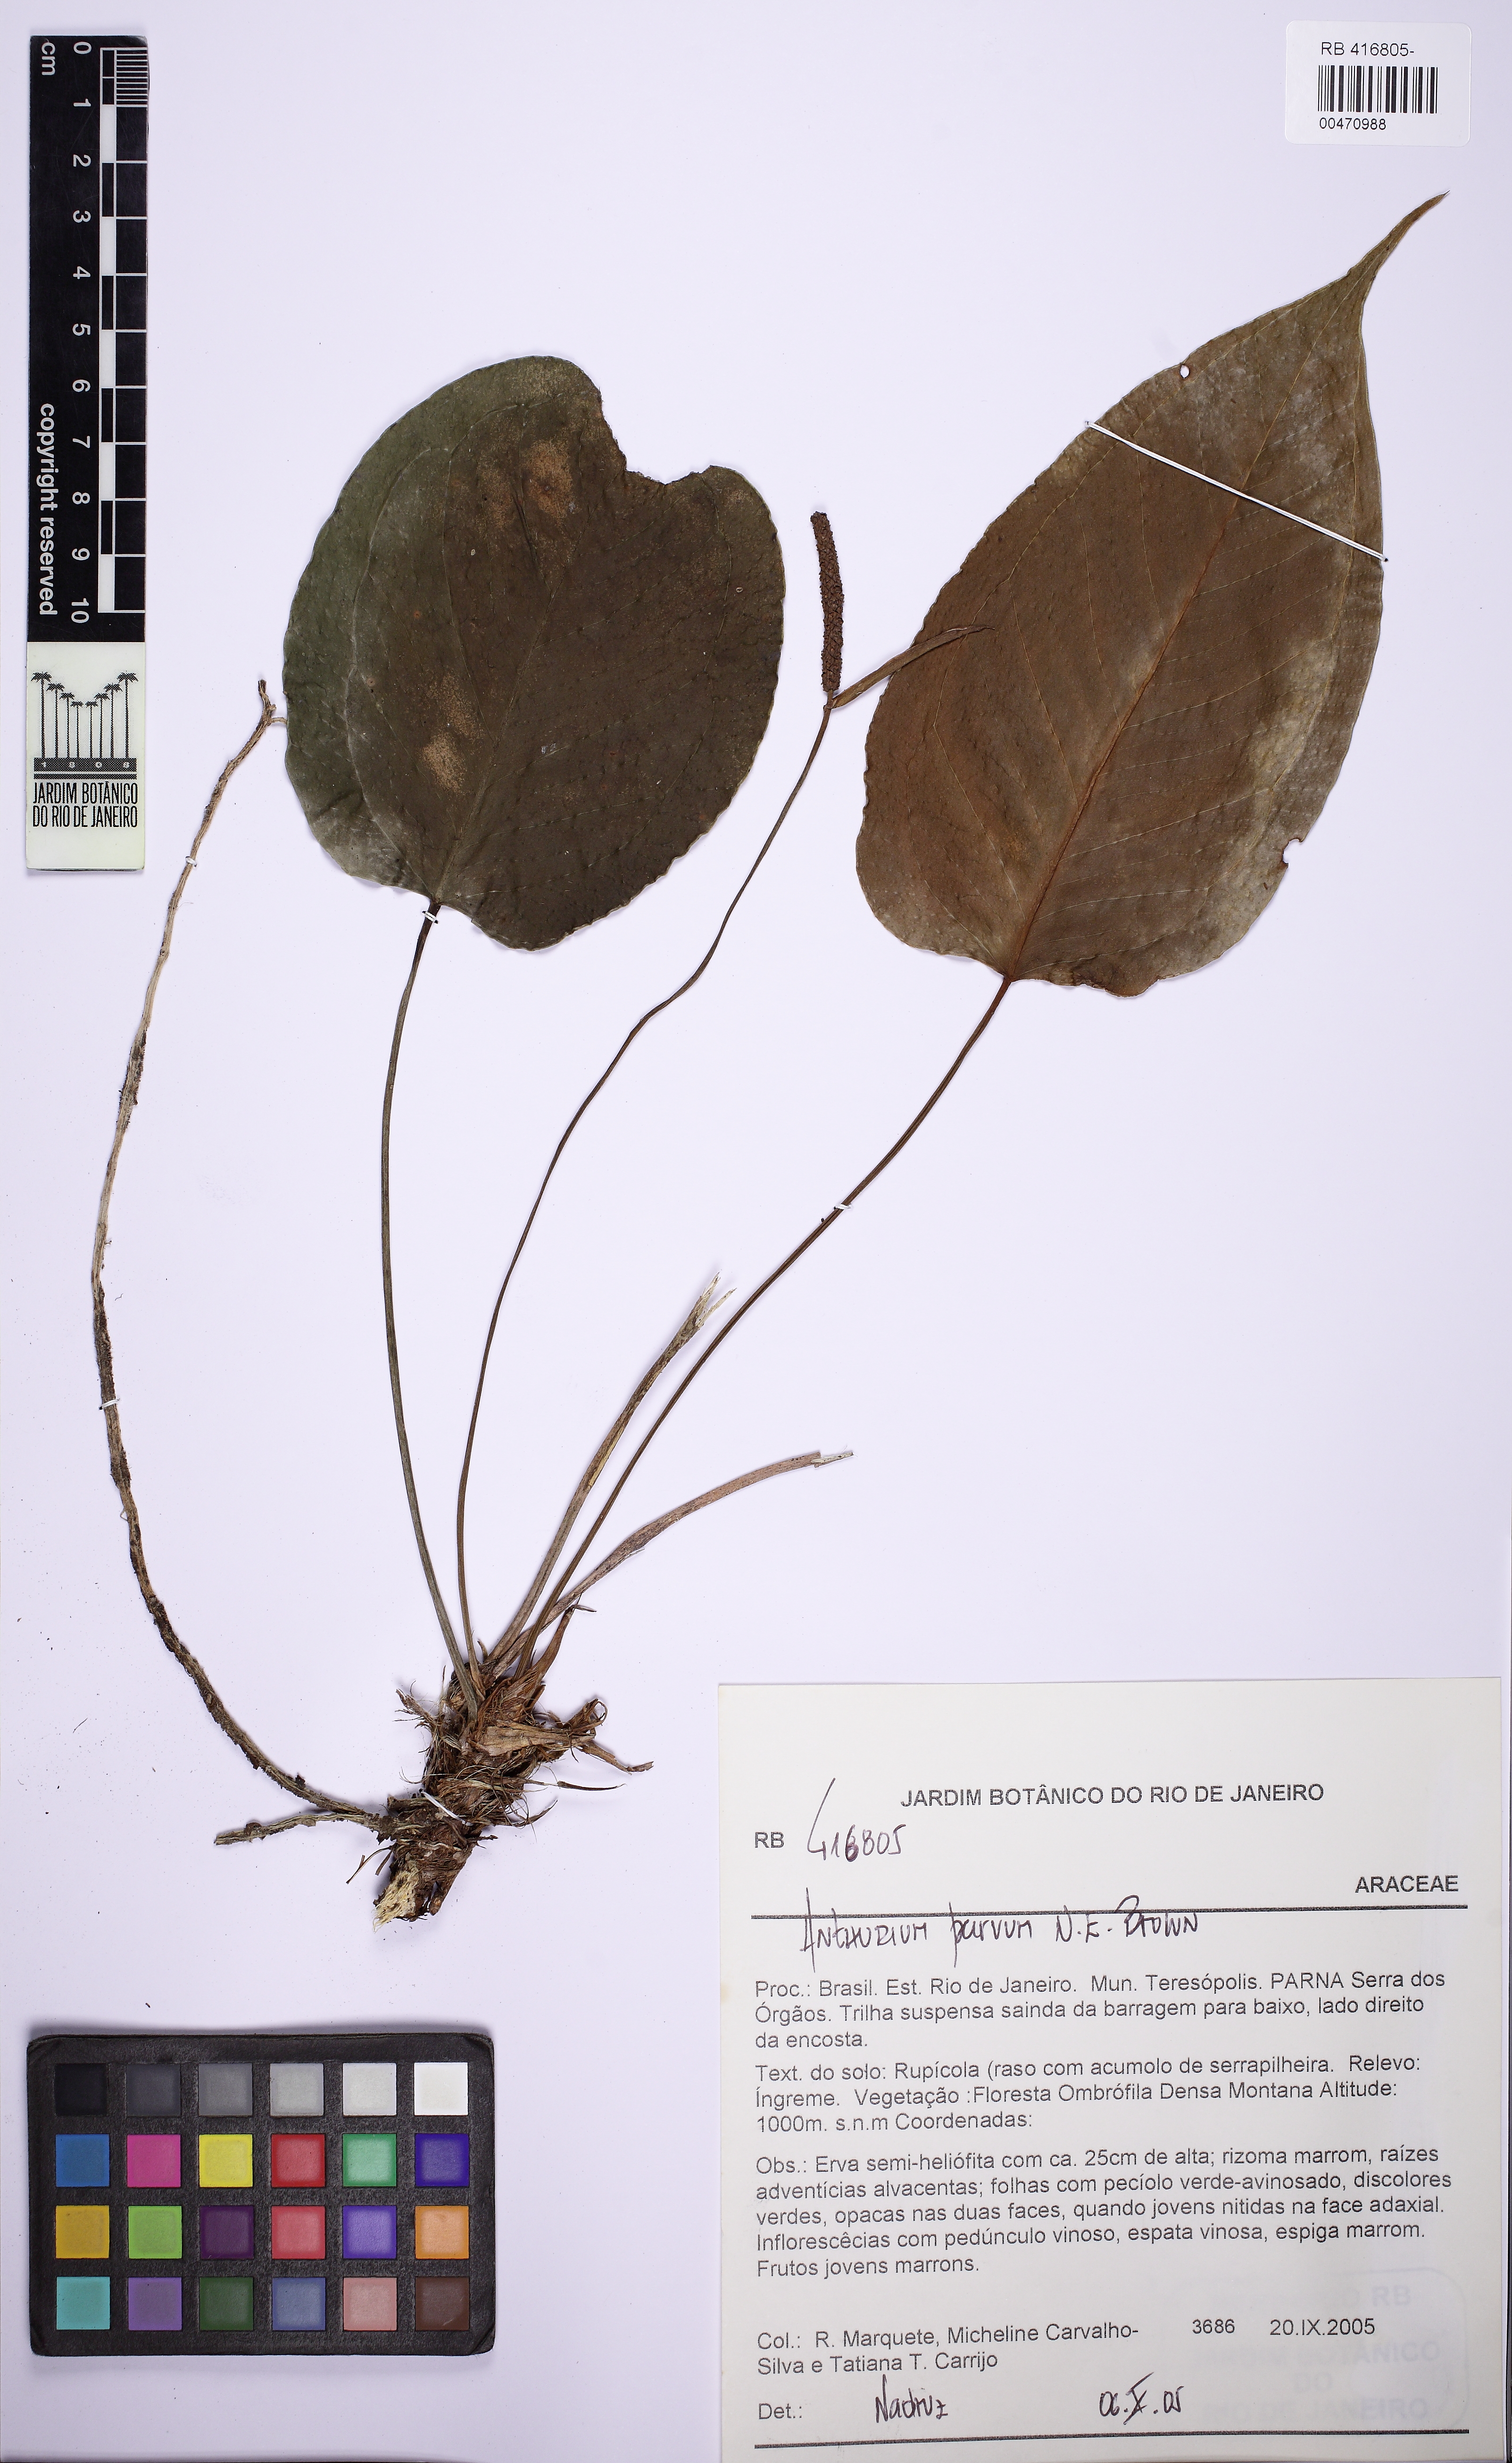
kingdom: Plantae
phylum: Tracheophyta
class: Liliopsida
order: Alismatales
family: Araceae
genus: Anthurium
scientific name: Anthurium parvum
